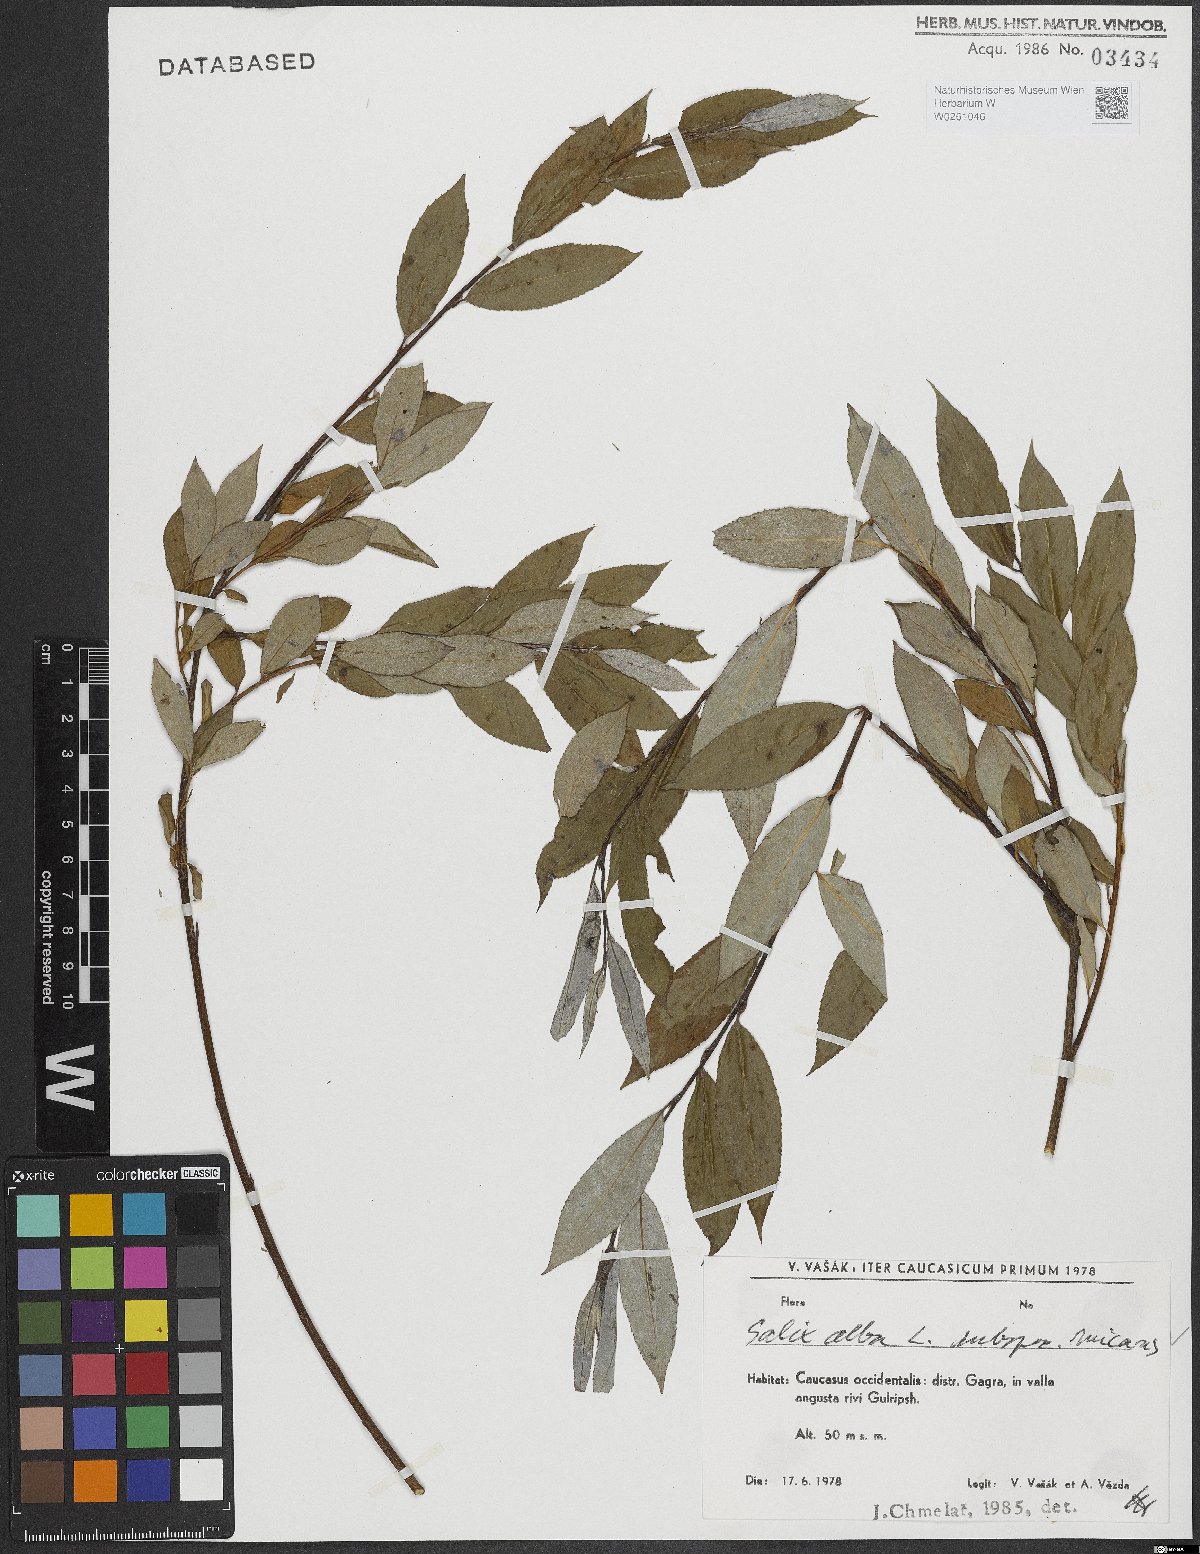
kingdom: Plantae
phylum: Tracheophyta
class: Magnoliopsida
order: Malpighiales
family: Salicaceae
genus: Salix
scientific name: Salix alba
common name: White willow
